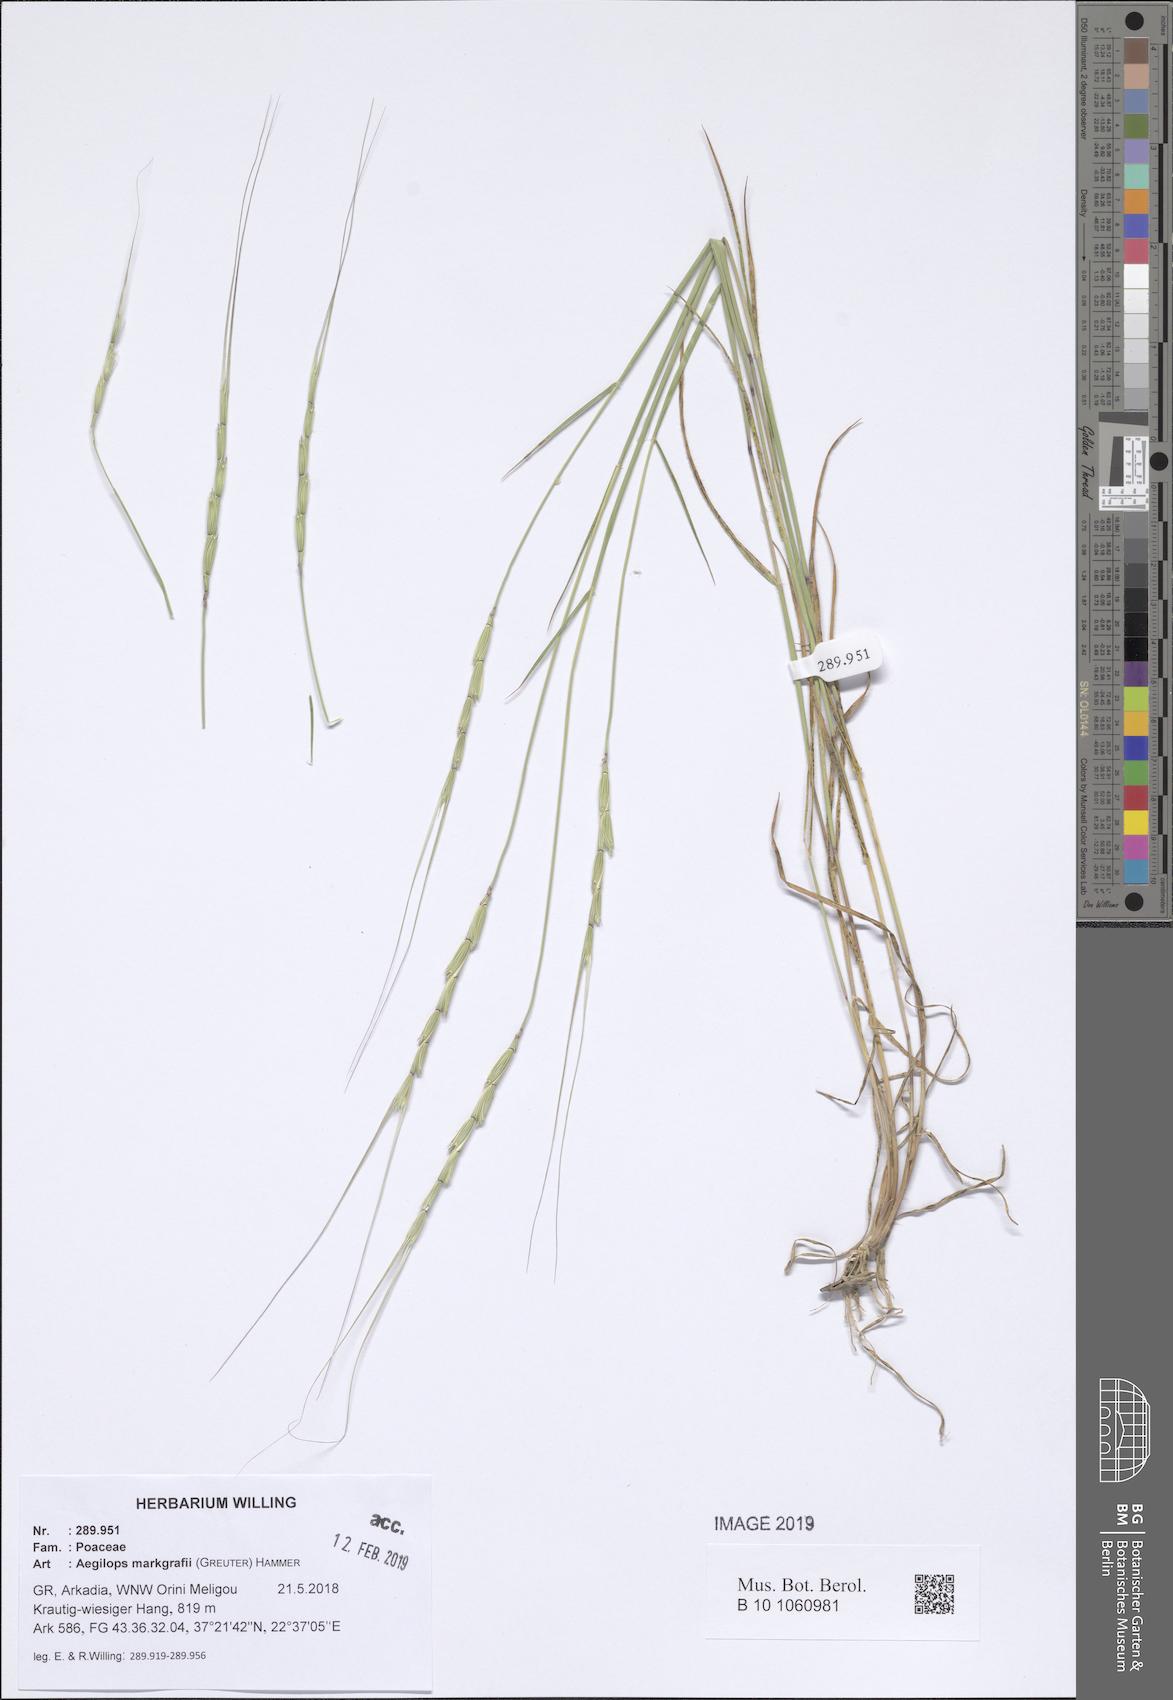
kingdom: Plantae
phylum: Tracheophyta
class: Liliopsida
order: Poales
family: Poaceae
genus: Aegilops
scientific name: Aegilops caudata
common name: Cretan hard-grass
